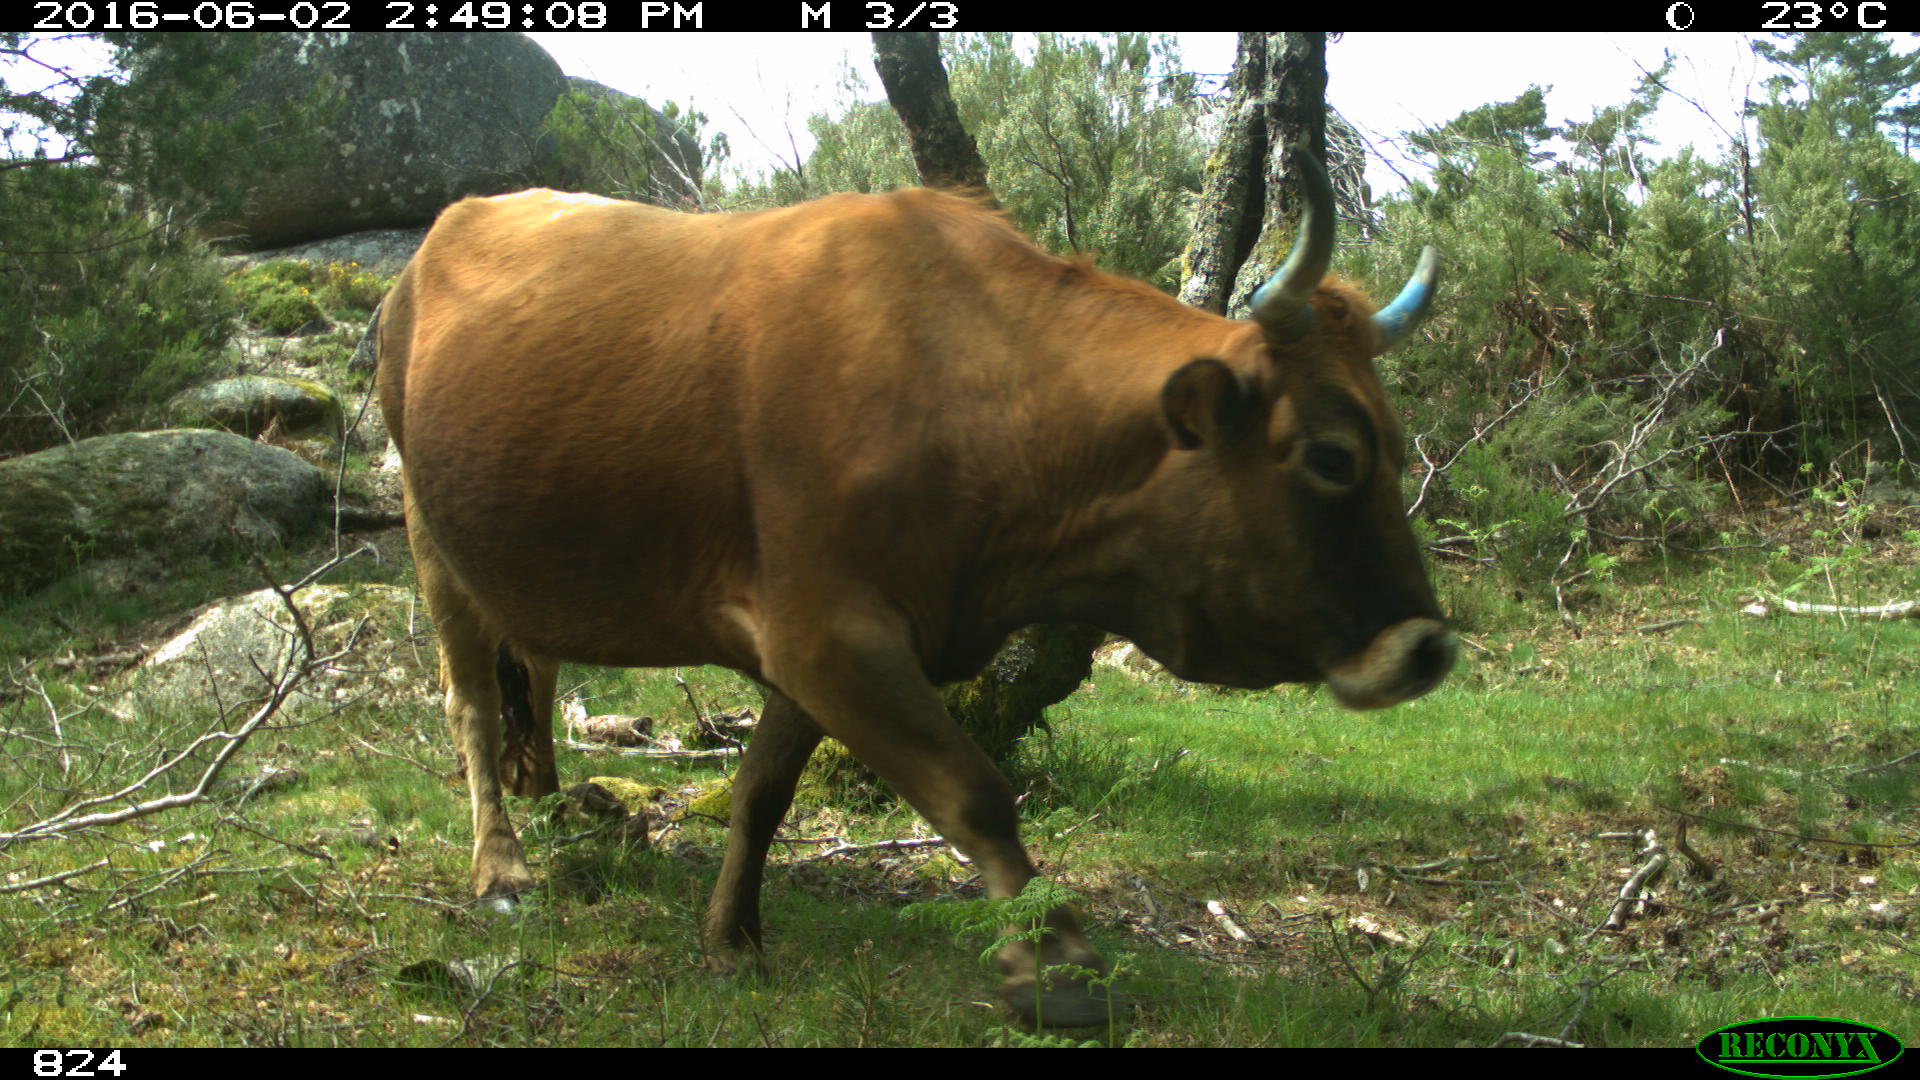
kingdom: Animalia
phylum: Chordata
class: Mammalia
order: Artiodactyla
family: Bovidae
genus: Bos
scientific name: Bos taurus
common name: Domesticated cattle
